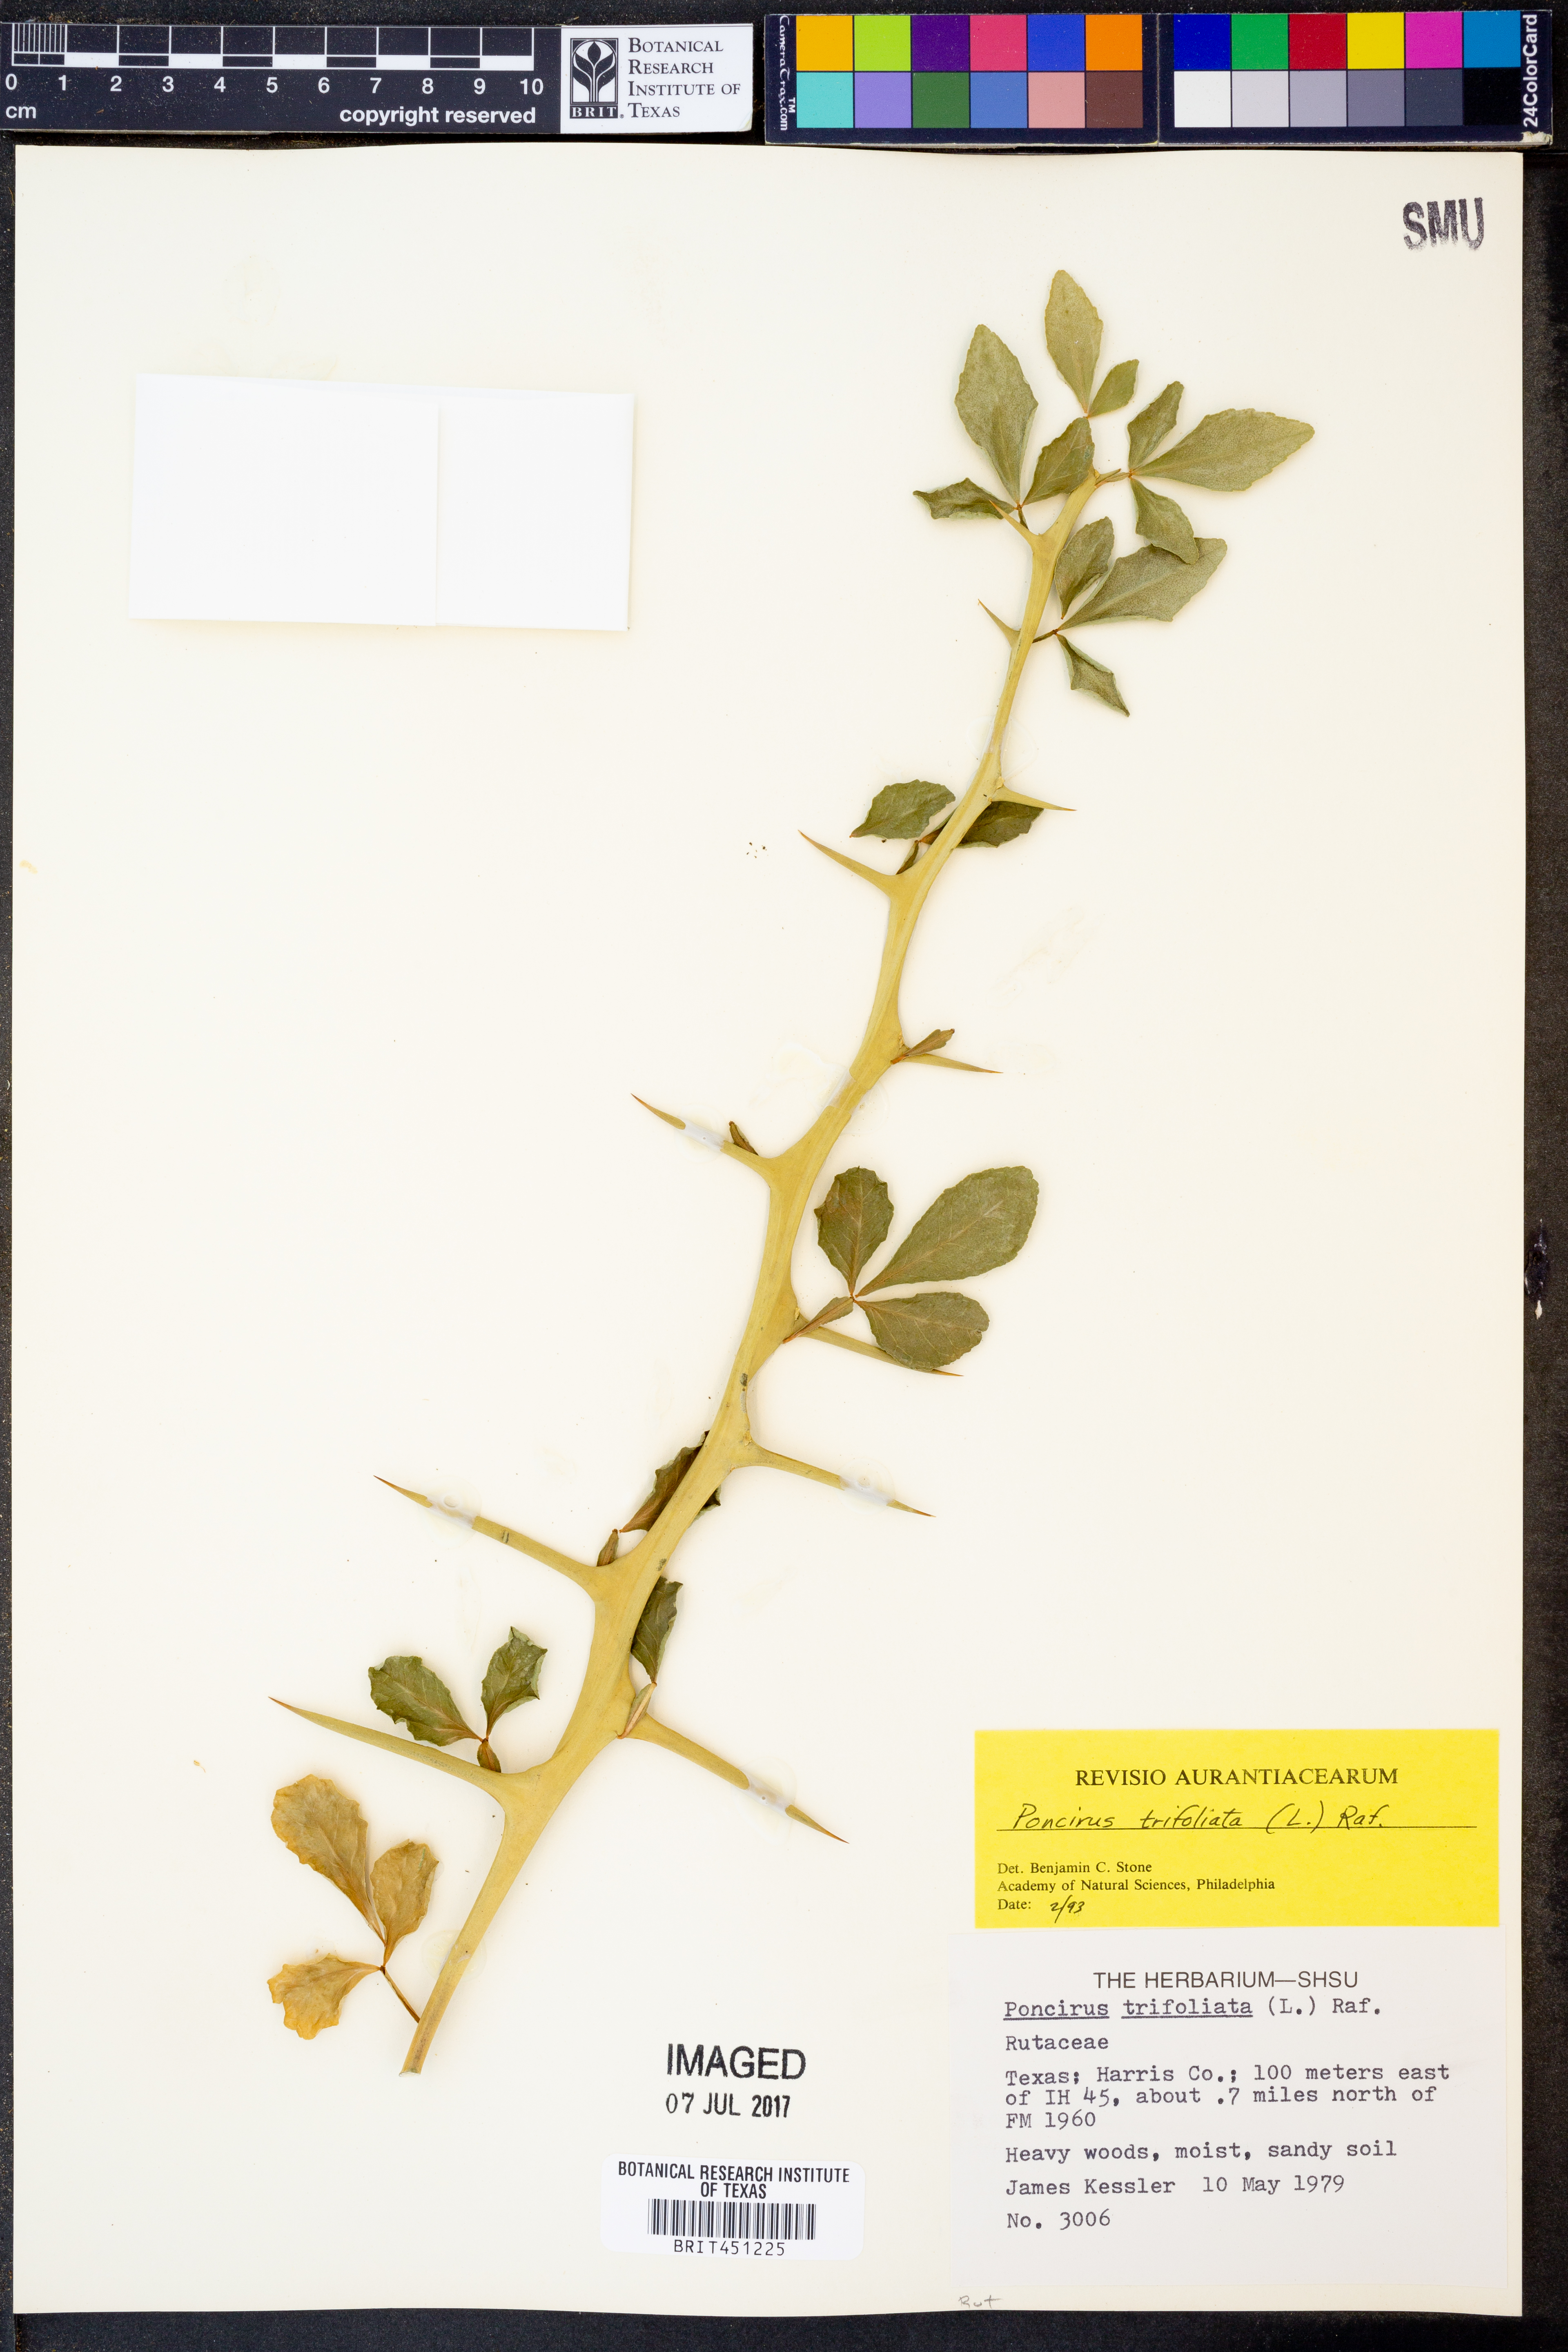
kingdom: Plantae
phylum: Tracheophyta
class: Magnoliopsida
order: Sapindales
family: Rutaceae
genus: Citrus
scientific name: Citrus trifoliata
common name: Japanese bitter-orange
